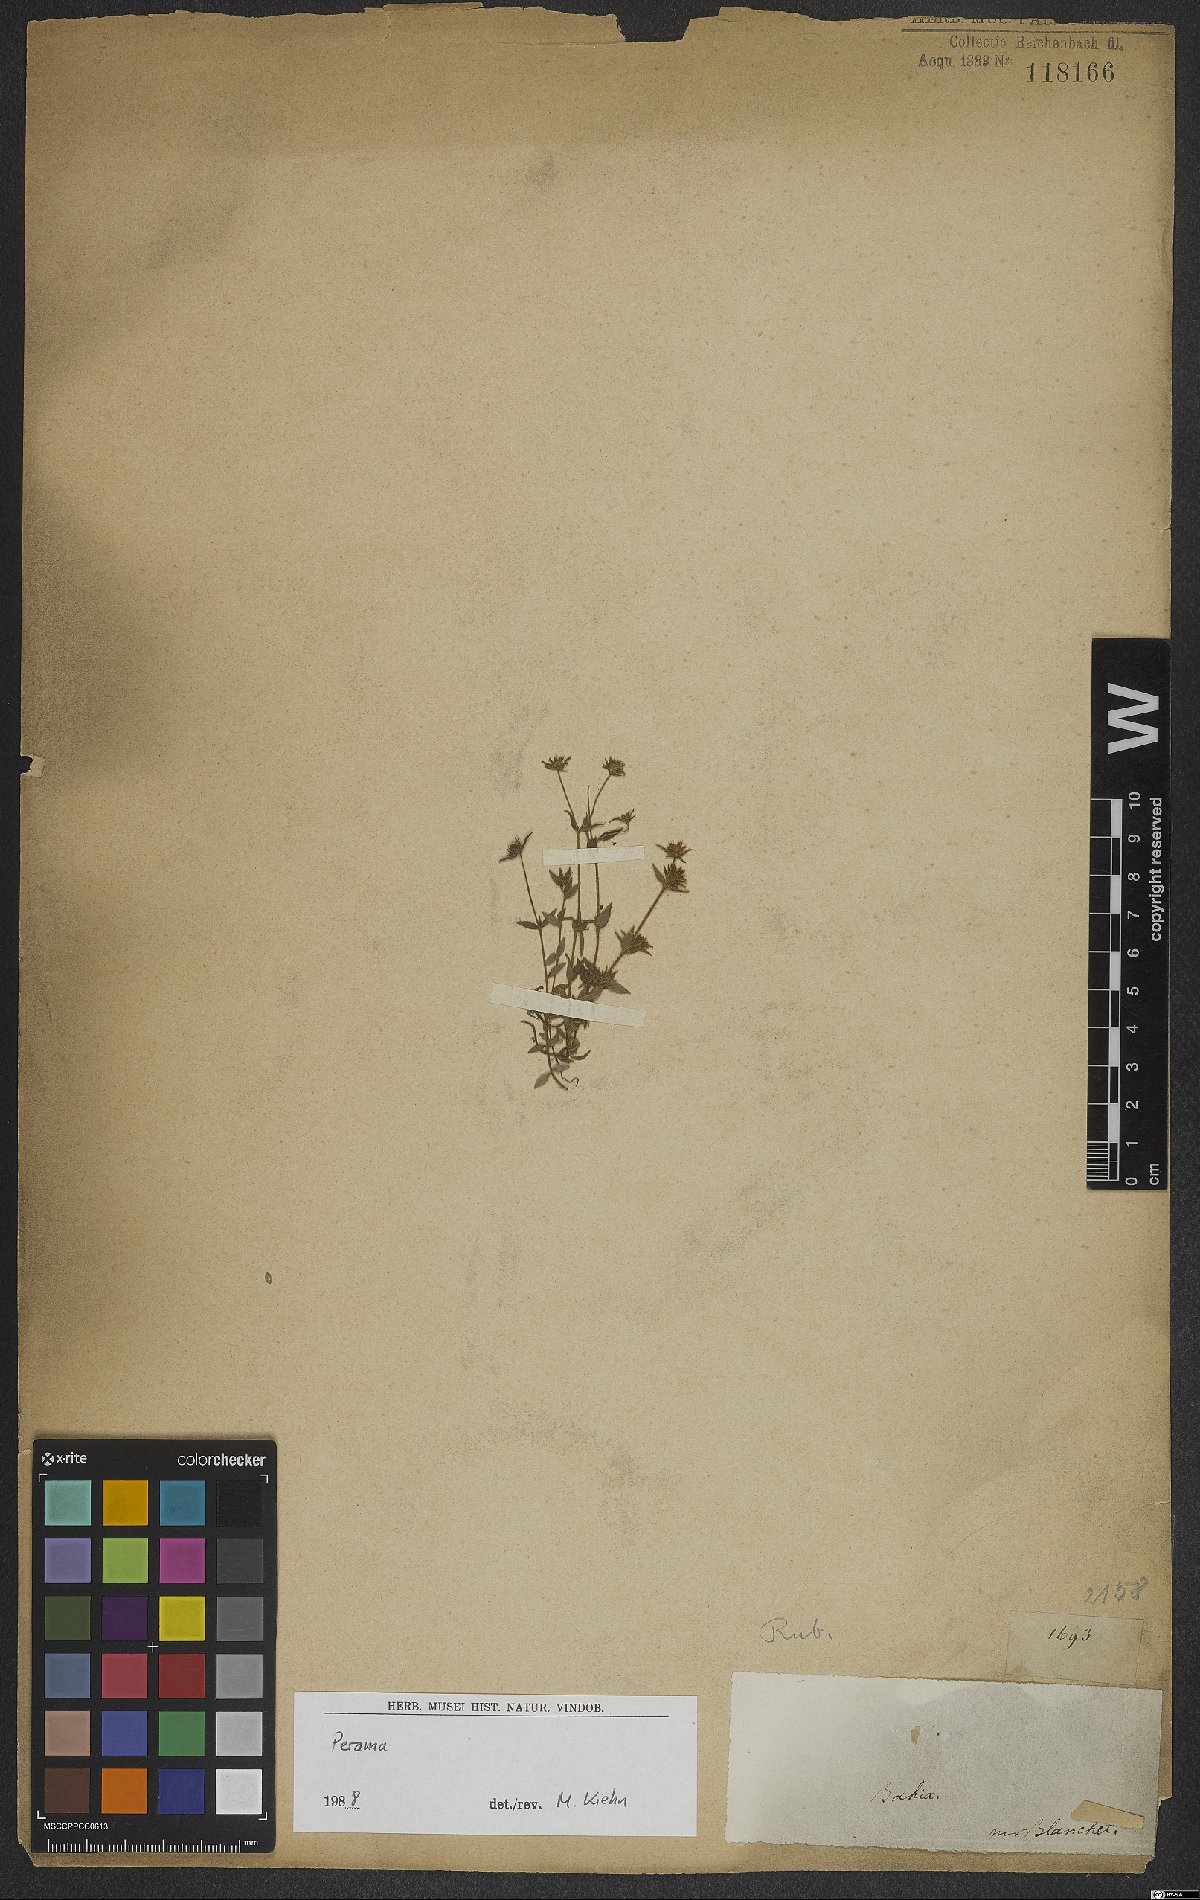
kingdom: Plantae
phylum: Tracheophyta
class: Magnoliopsida
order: Gentianales
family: Rubiaceae
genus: Perama
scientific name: Perama
